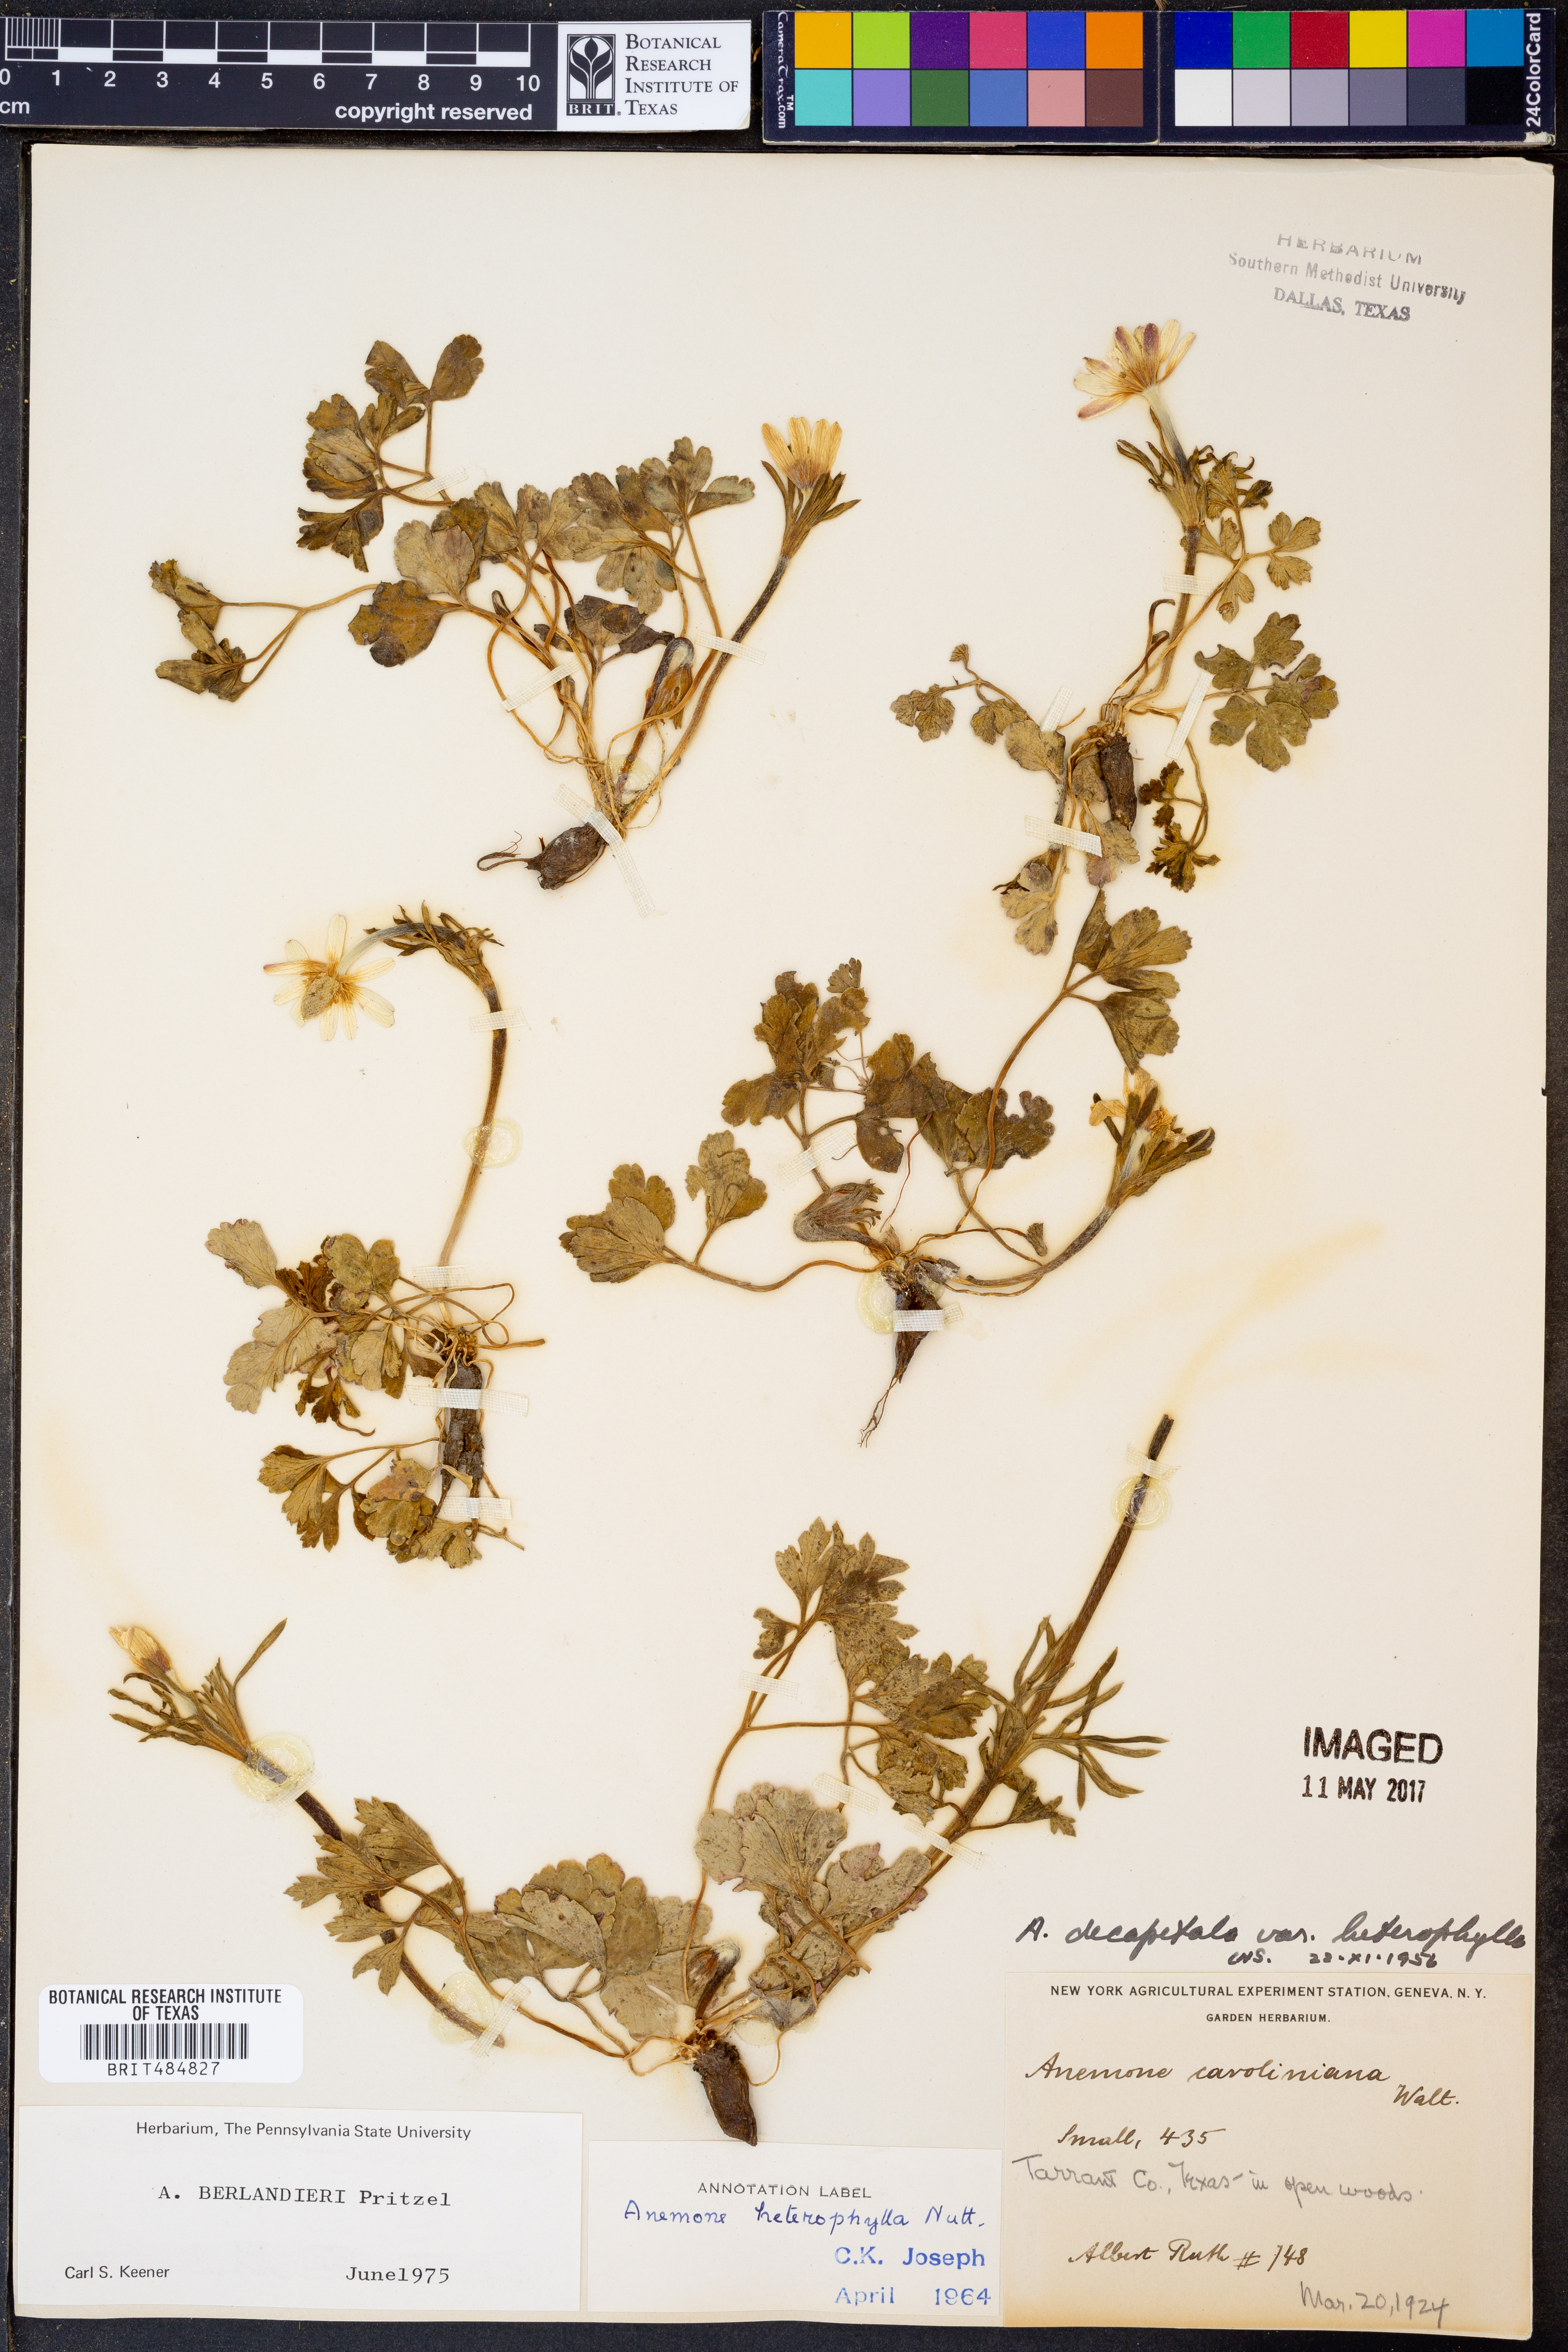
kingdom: Plantae
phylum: Tracheophyta
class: Magnoliopsida
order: Ranunculales
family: Ranunculaceae
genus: Anemone
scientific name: Anemone berlandieri
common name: Ten-petal anemone
